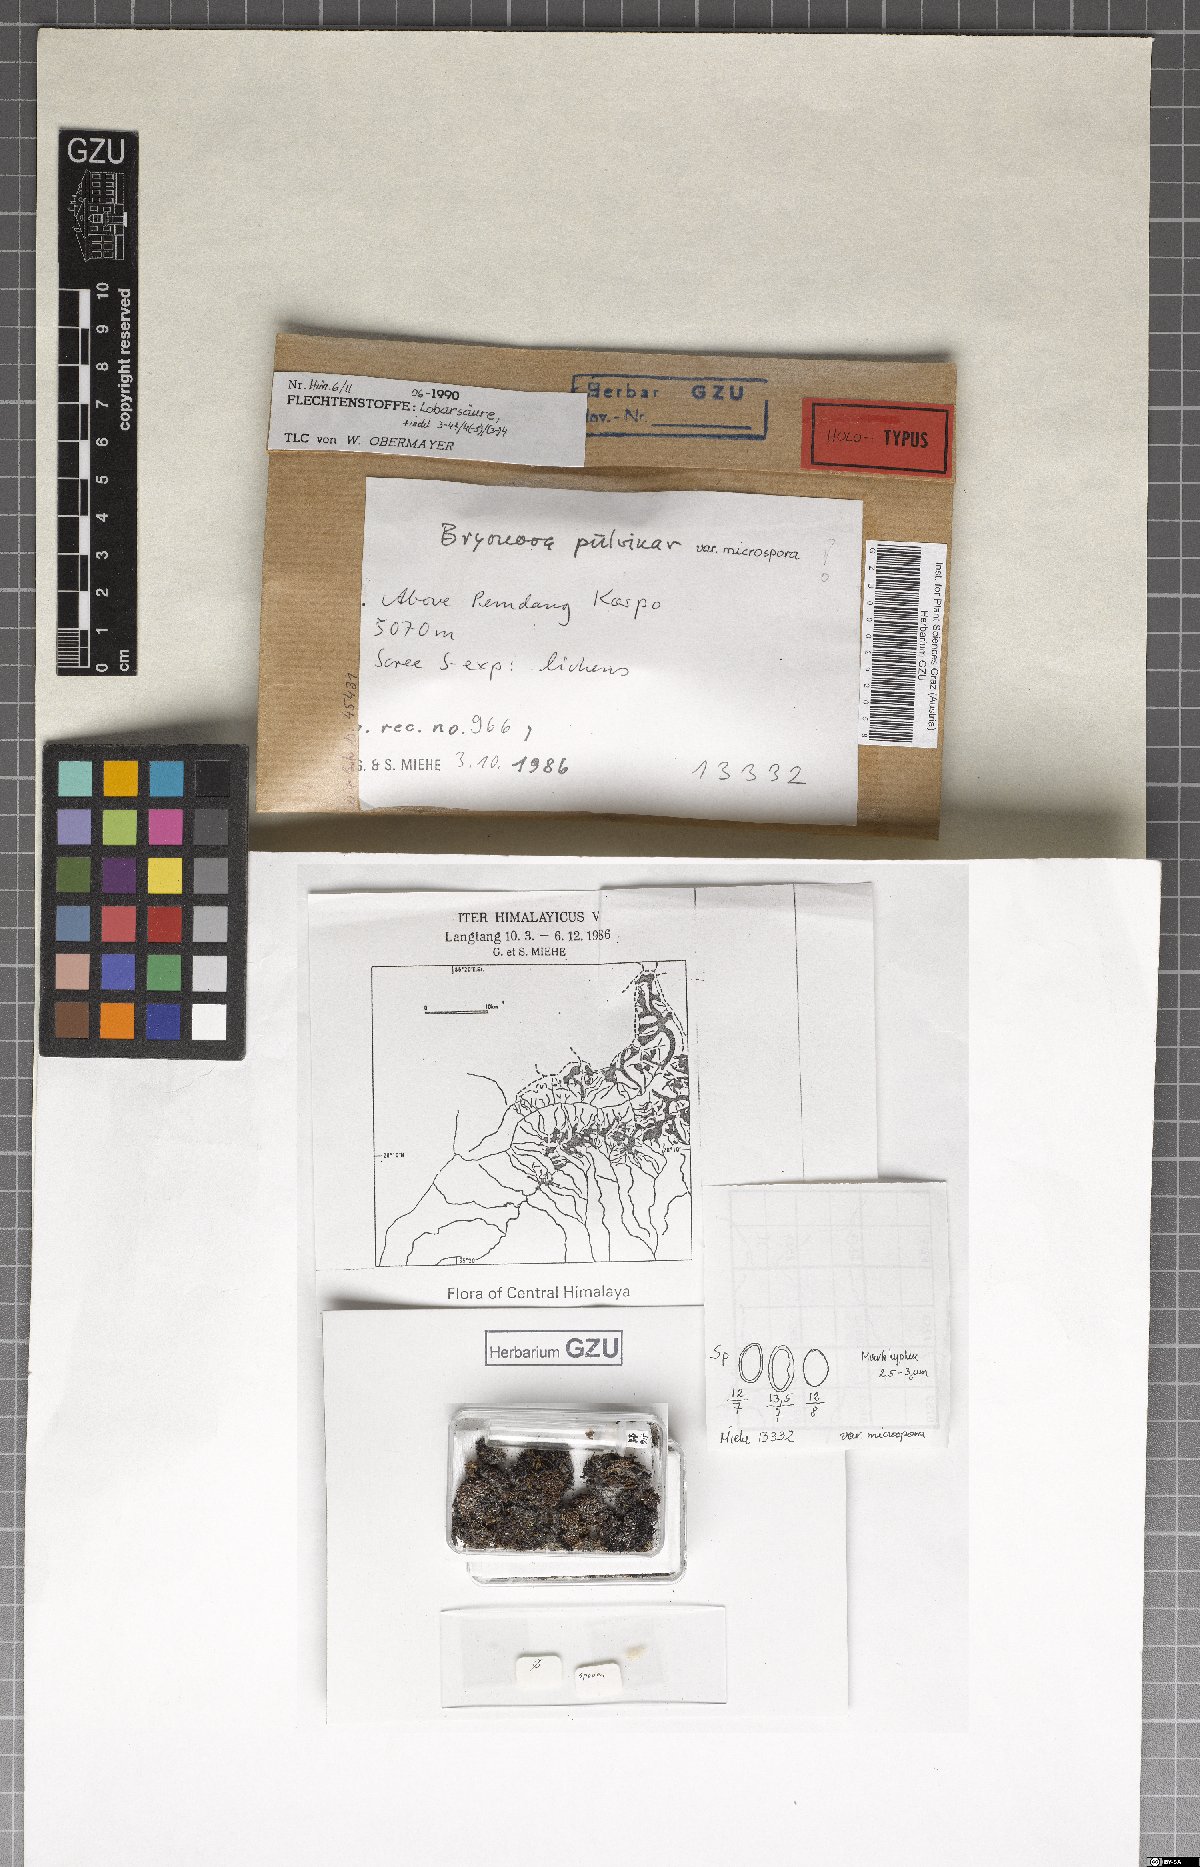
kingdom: Fungi
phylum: Ascomycota
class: Lecanoromycetes
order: Lecanorales
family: Lecanoraceae
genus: Bryonora
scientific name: Bryonora pulvinar
